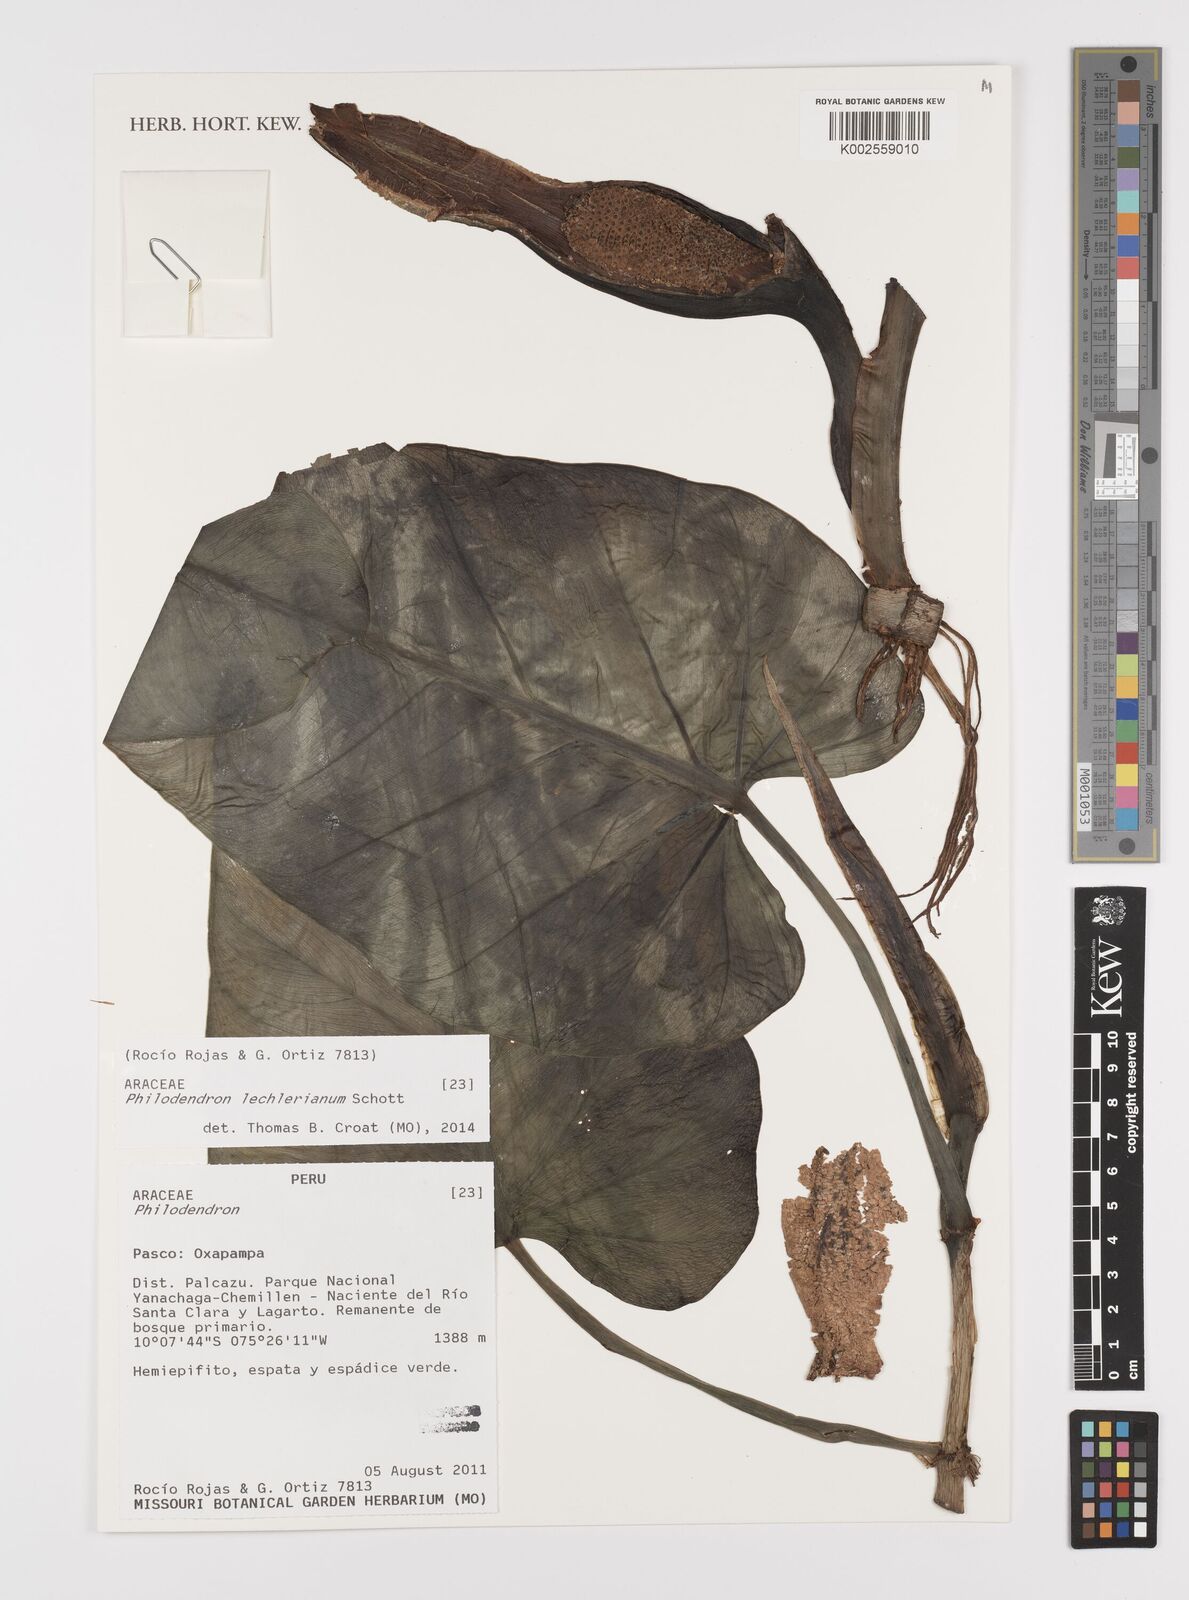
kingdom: Plantae
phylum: Tracheophyta
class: Liliopsida
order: Alismatales
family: Araceae
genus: Philodendron
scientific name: Philodendron lechlerianum
